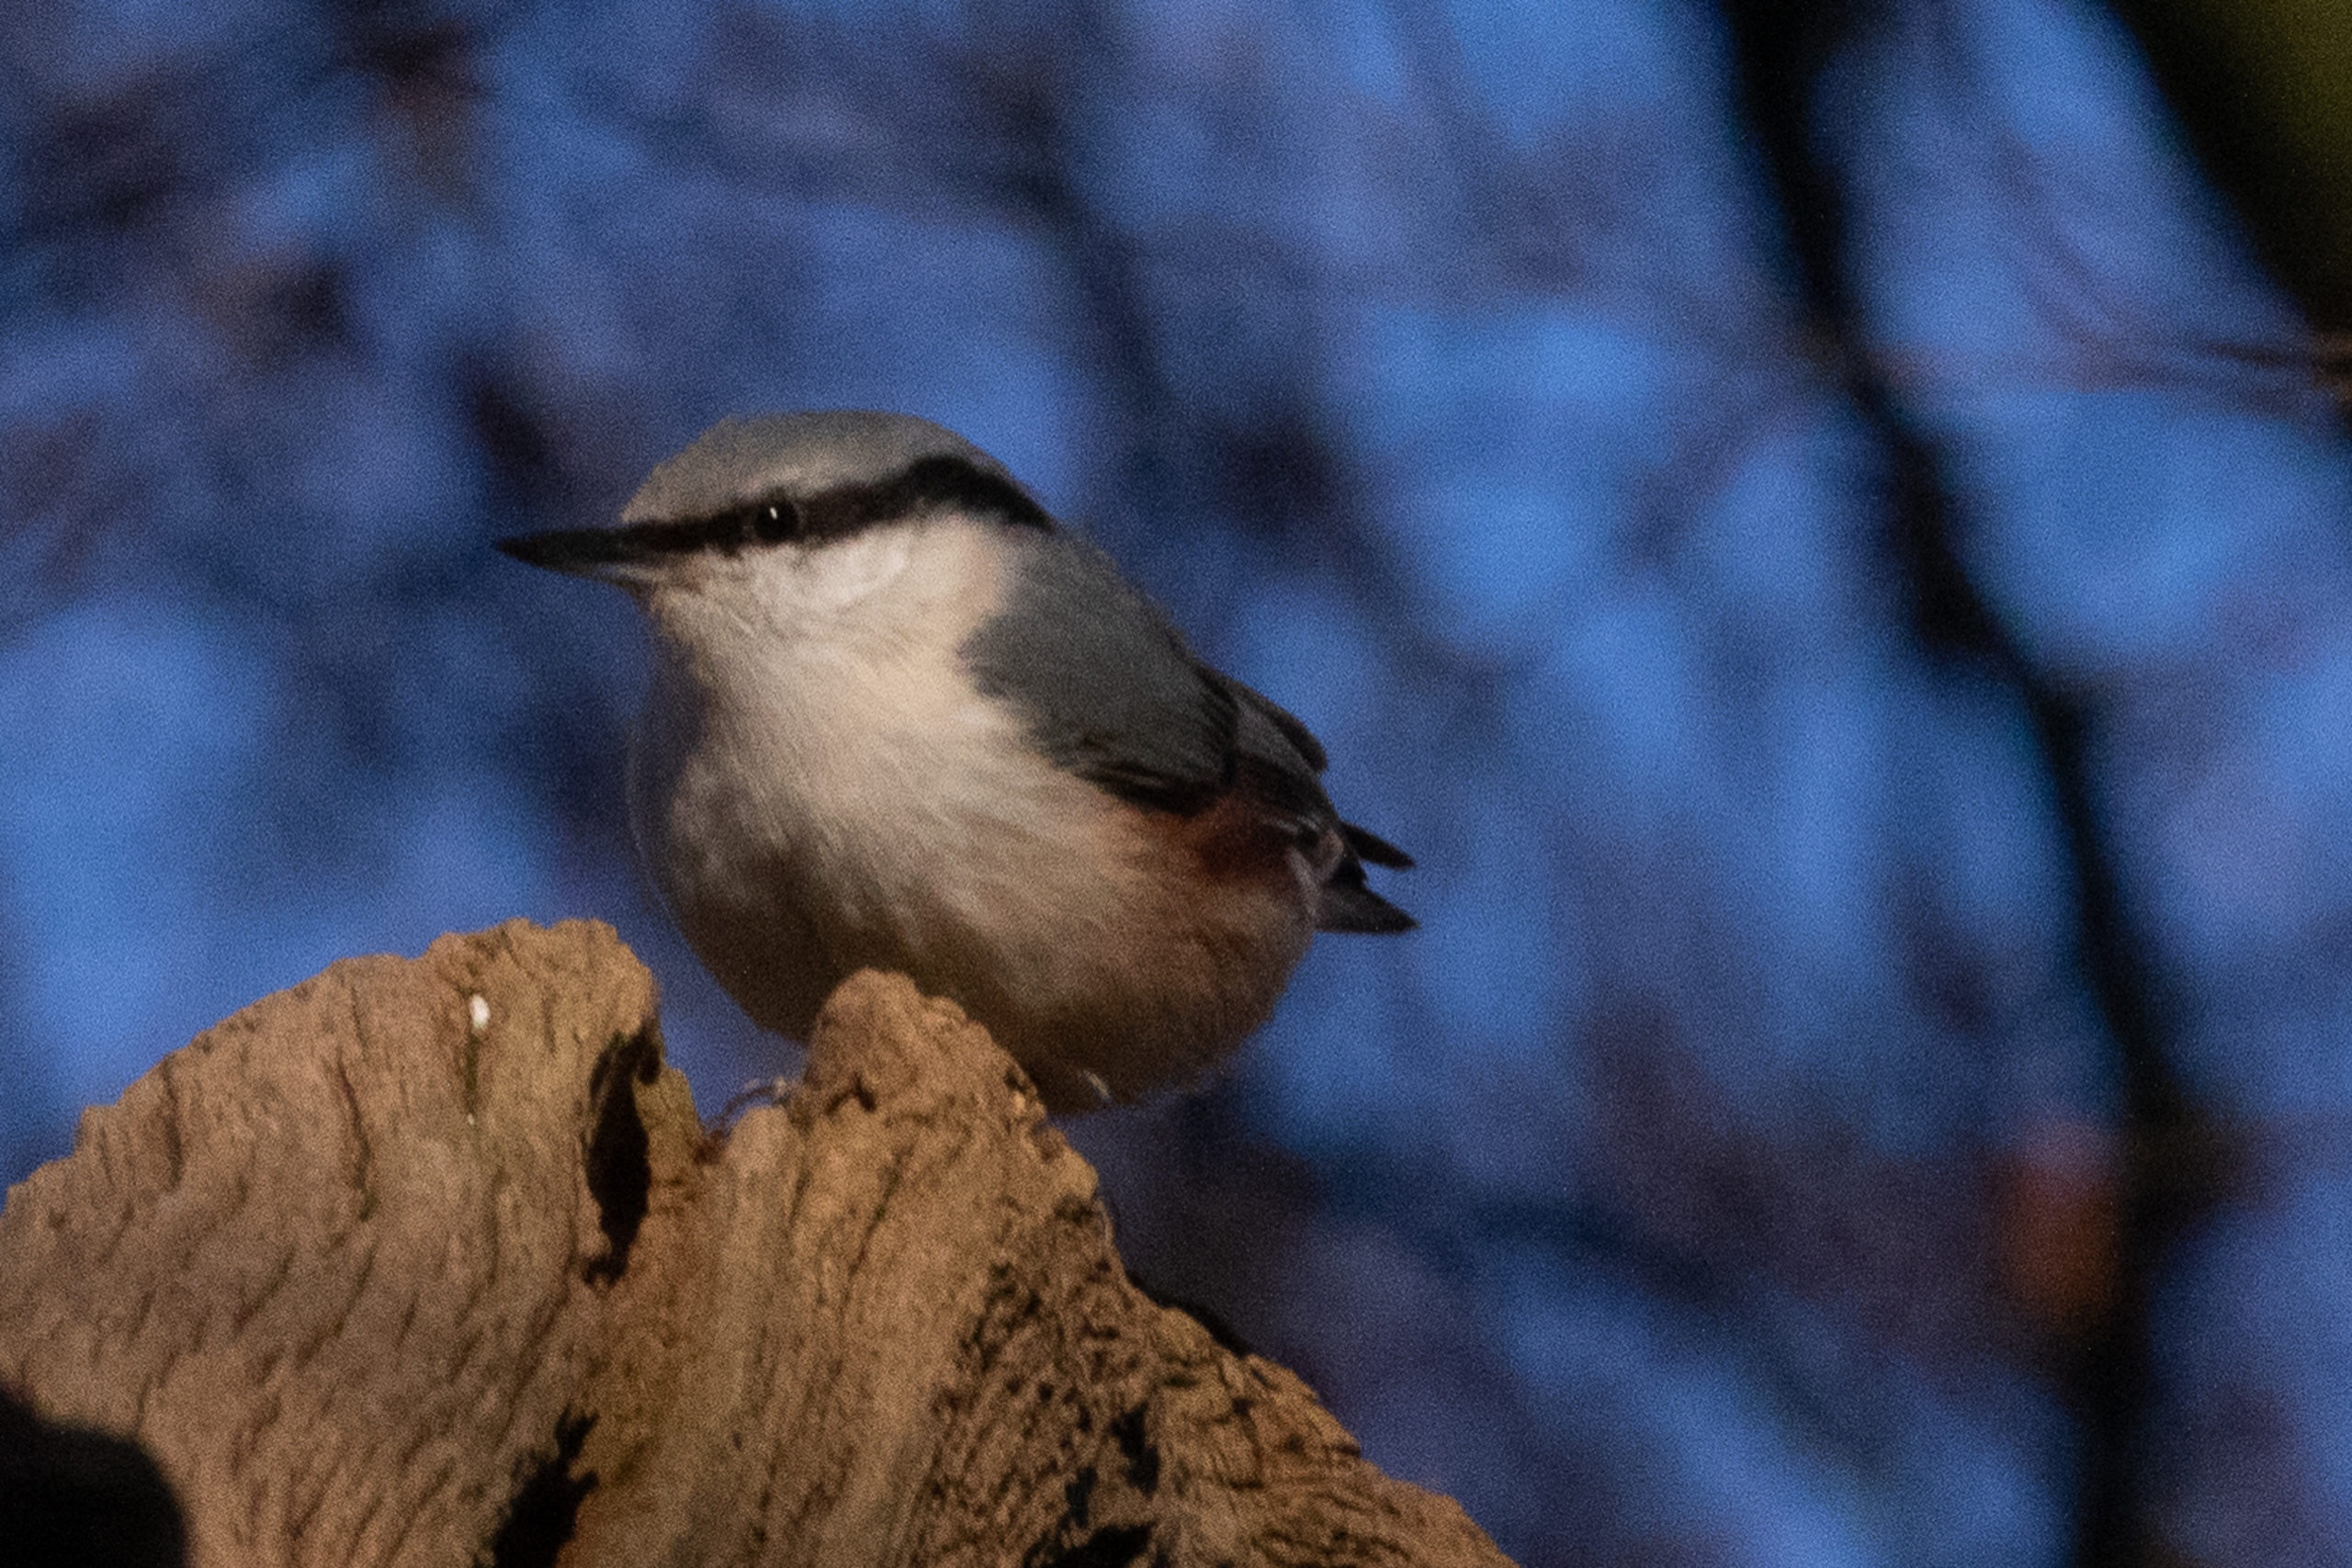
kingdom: Animalia
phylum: Chordata
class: Aves
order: Passeriformes
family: Sittidae
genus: Sitta
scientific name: Sitta europaea
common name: Spætmejse
